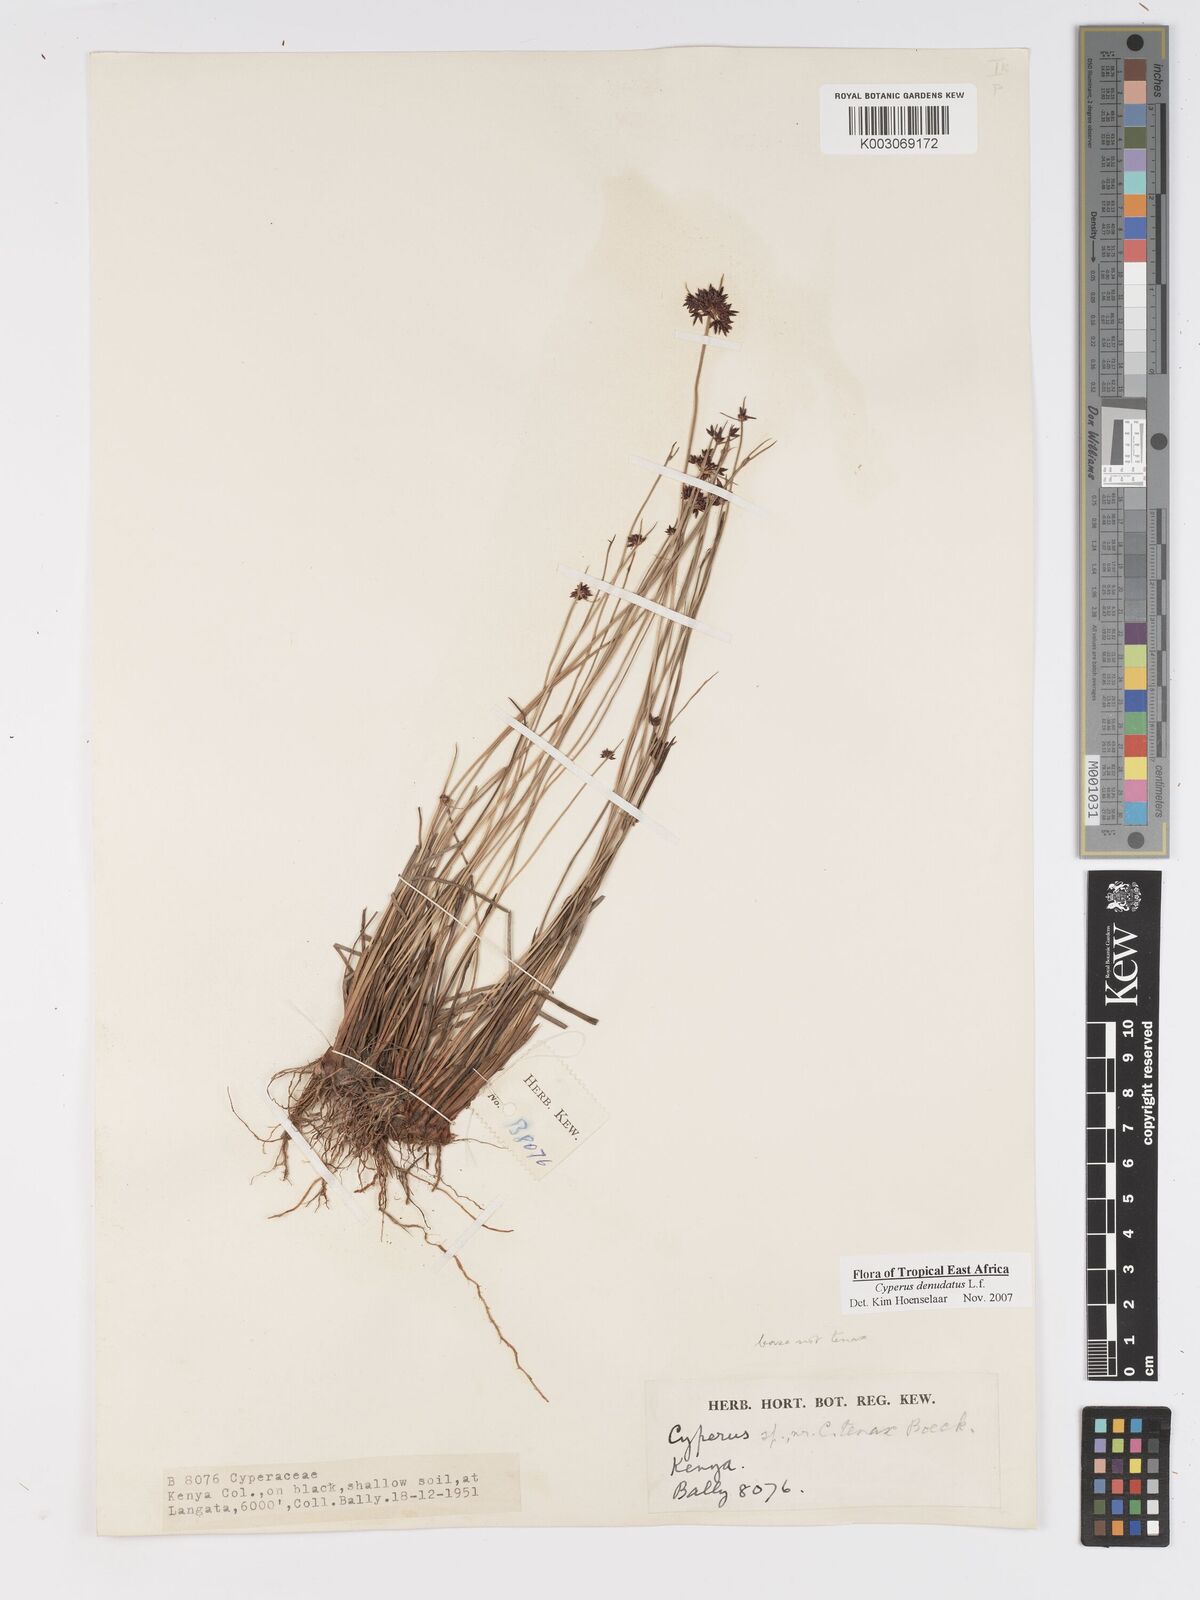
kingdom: Plantae
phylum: Tracheophyta
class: Liliopsida
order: Poales
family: Cyperaceae
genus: Cyperus
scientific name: Cyperus platycaulis
